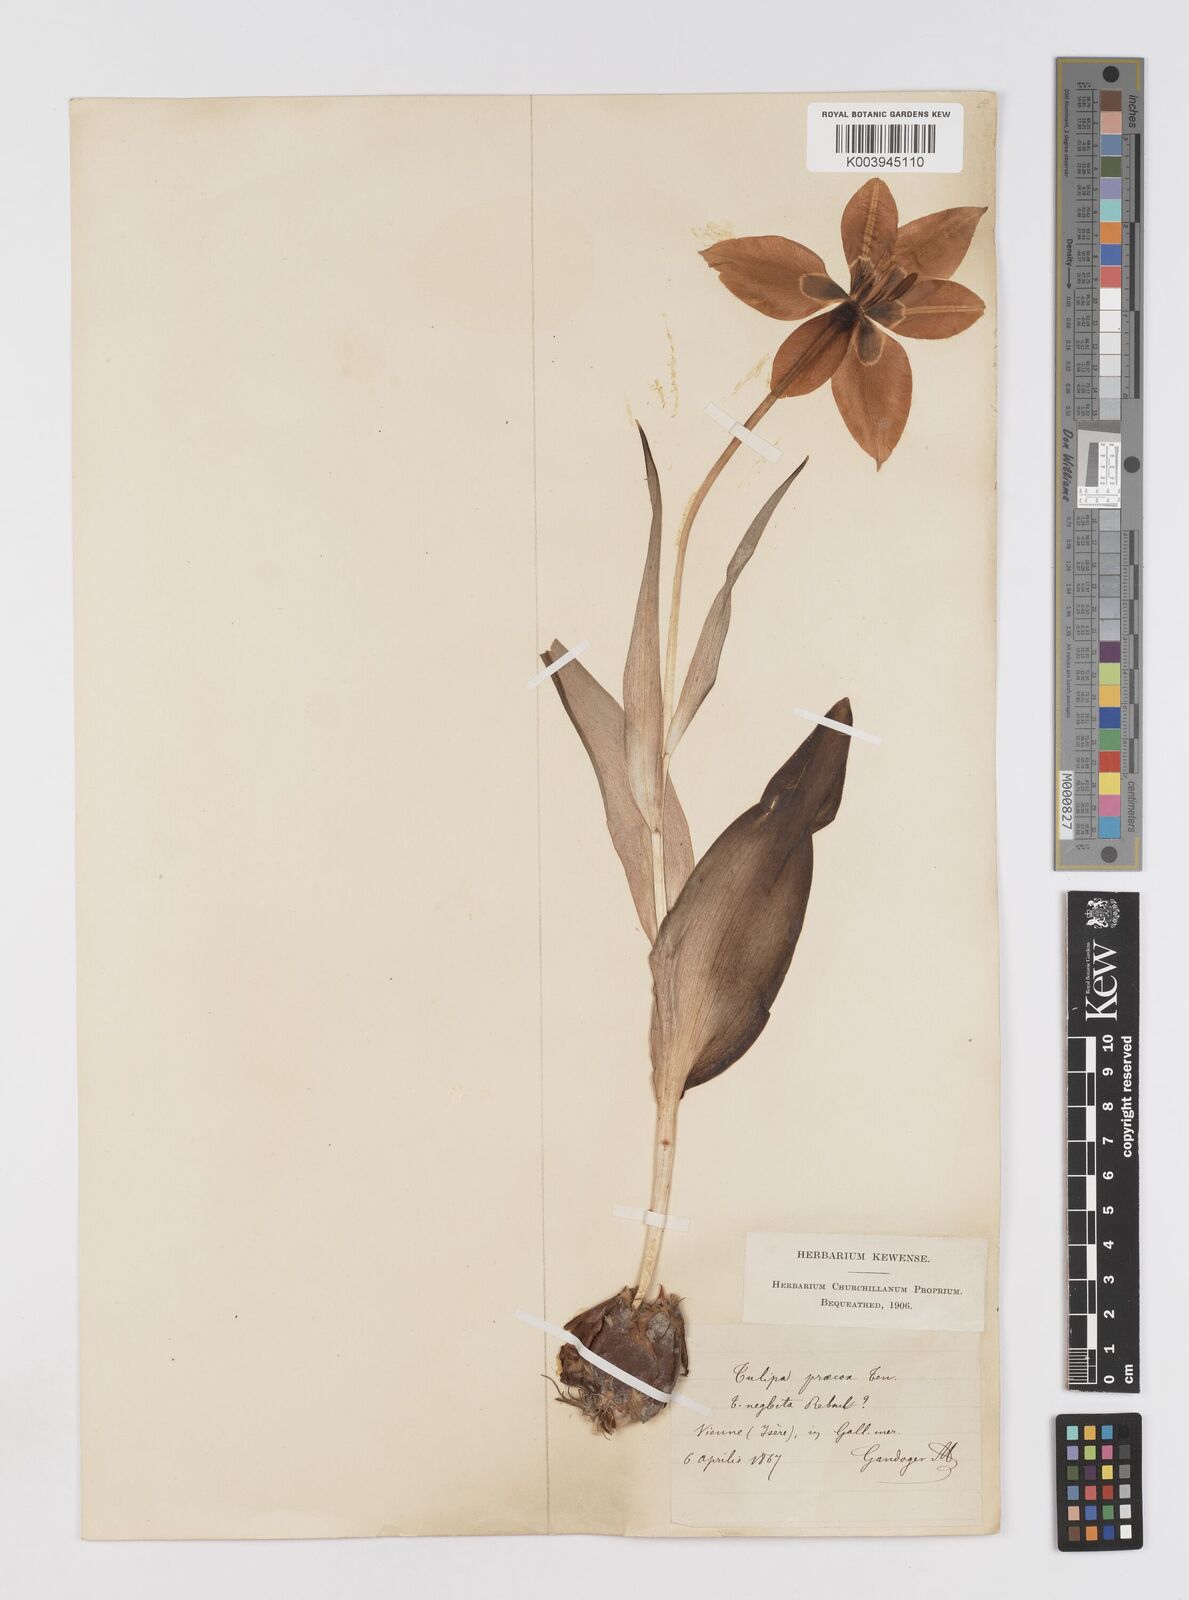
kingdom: Plantae
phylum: Tracheophyta
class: Liliopsida
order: Liliales
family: Liliaceae
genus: Tulipa
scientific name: Tulipa
